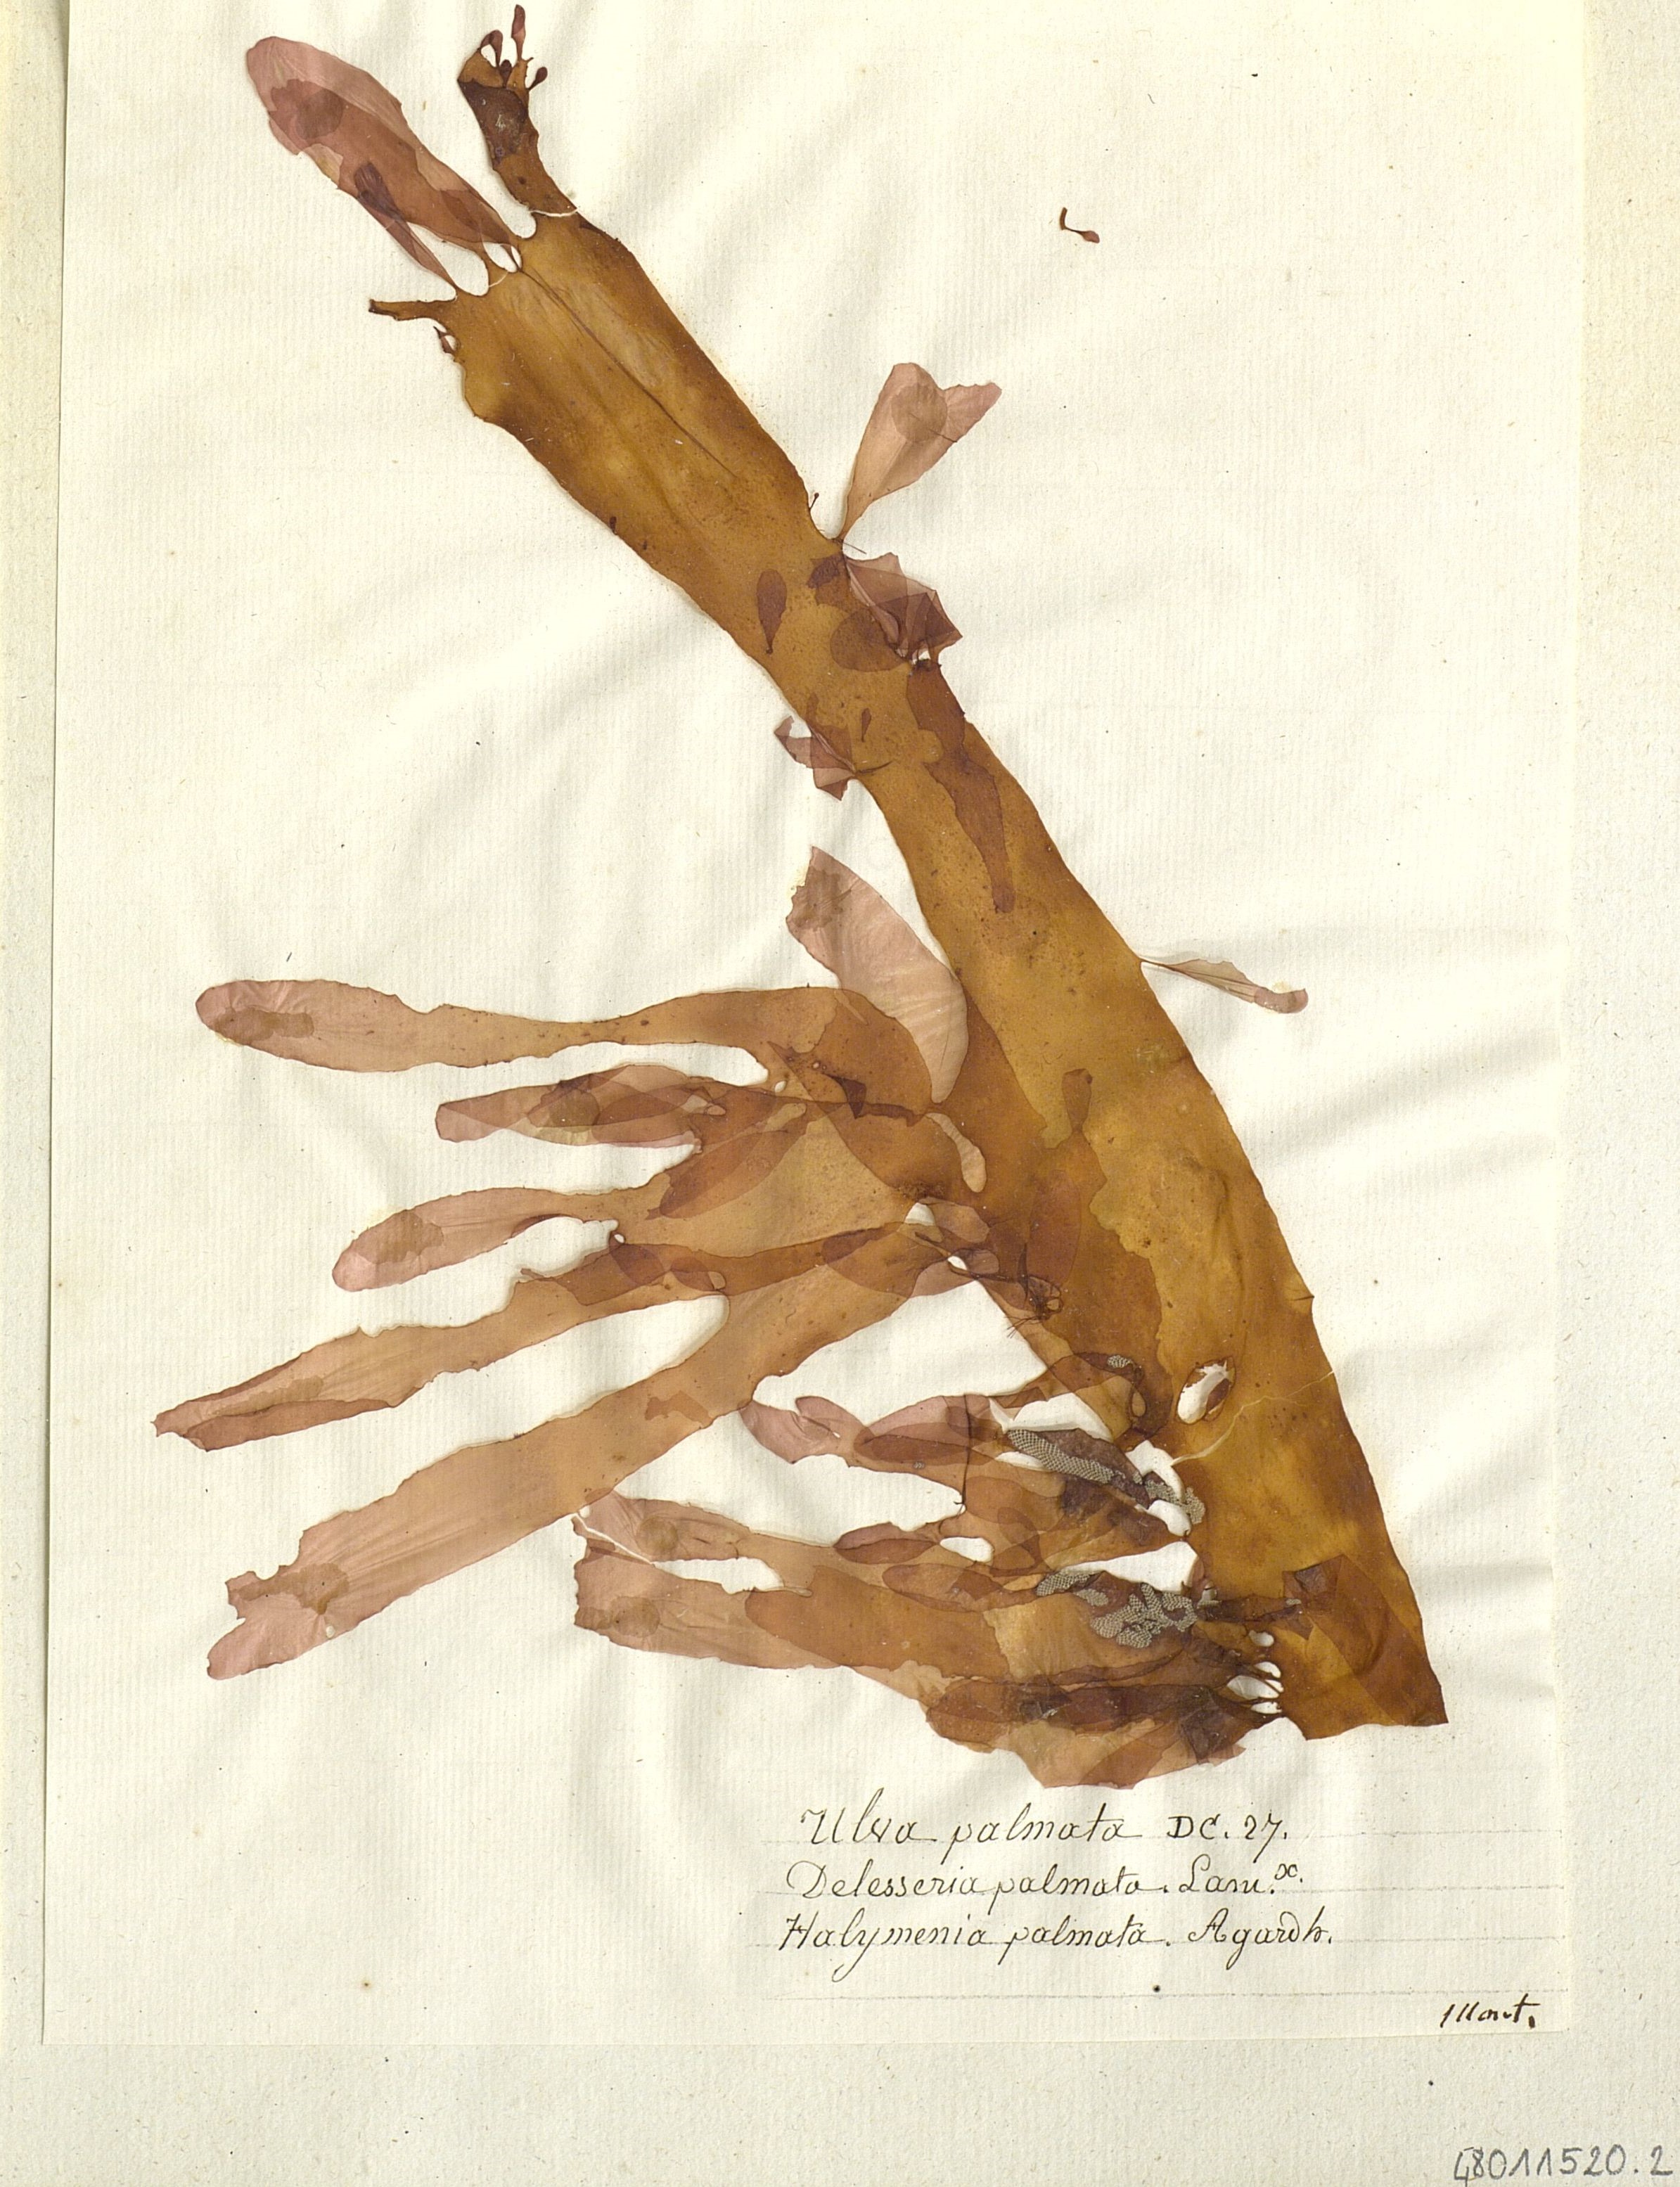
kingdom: Plantae
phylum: Chlorophyta
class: Ulvophyceae
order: Ulvales
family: Ulvaceae
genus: Ulva
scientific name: Ulva
